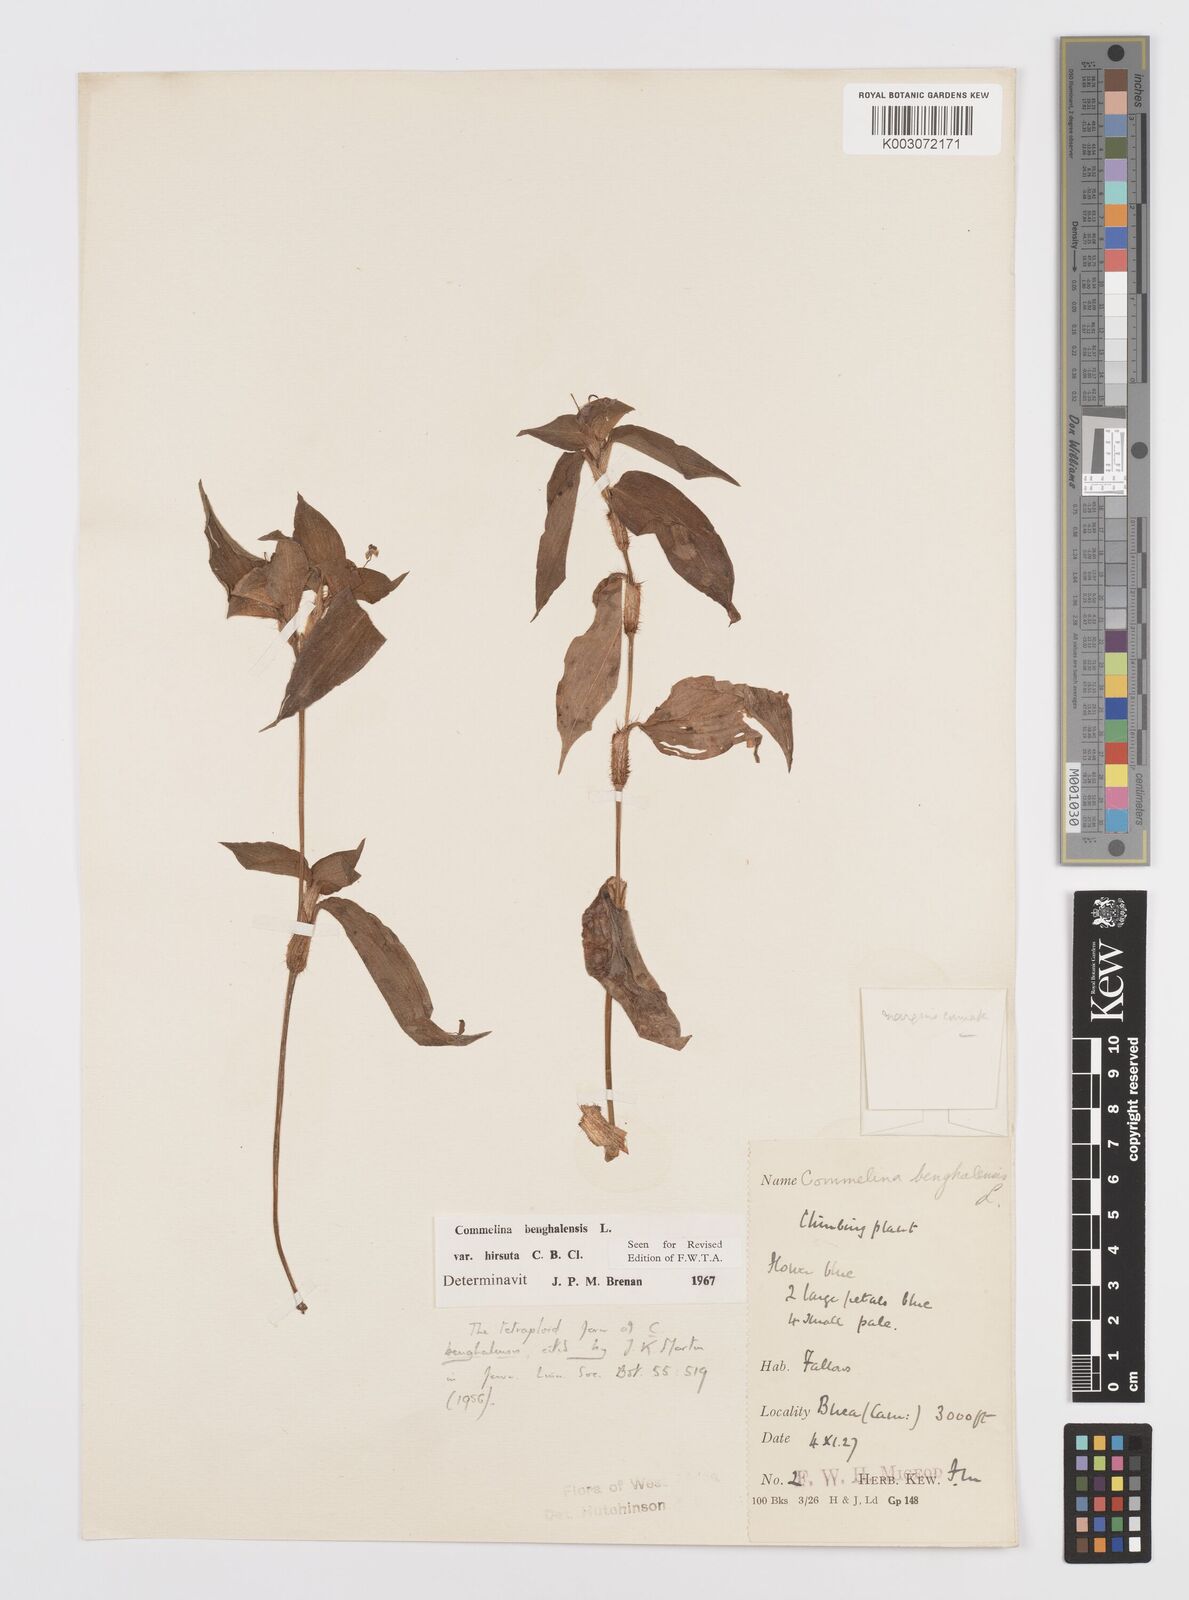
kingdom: Plantae
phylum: Tracheophyta
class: Liliopsida
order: Commelinales
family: Commelinaceae
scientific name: Commelinaceae
